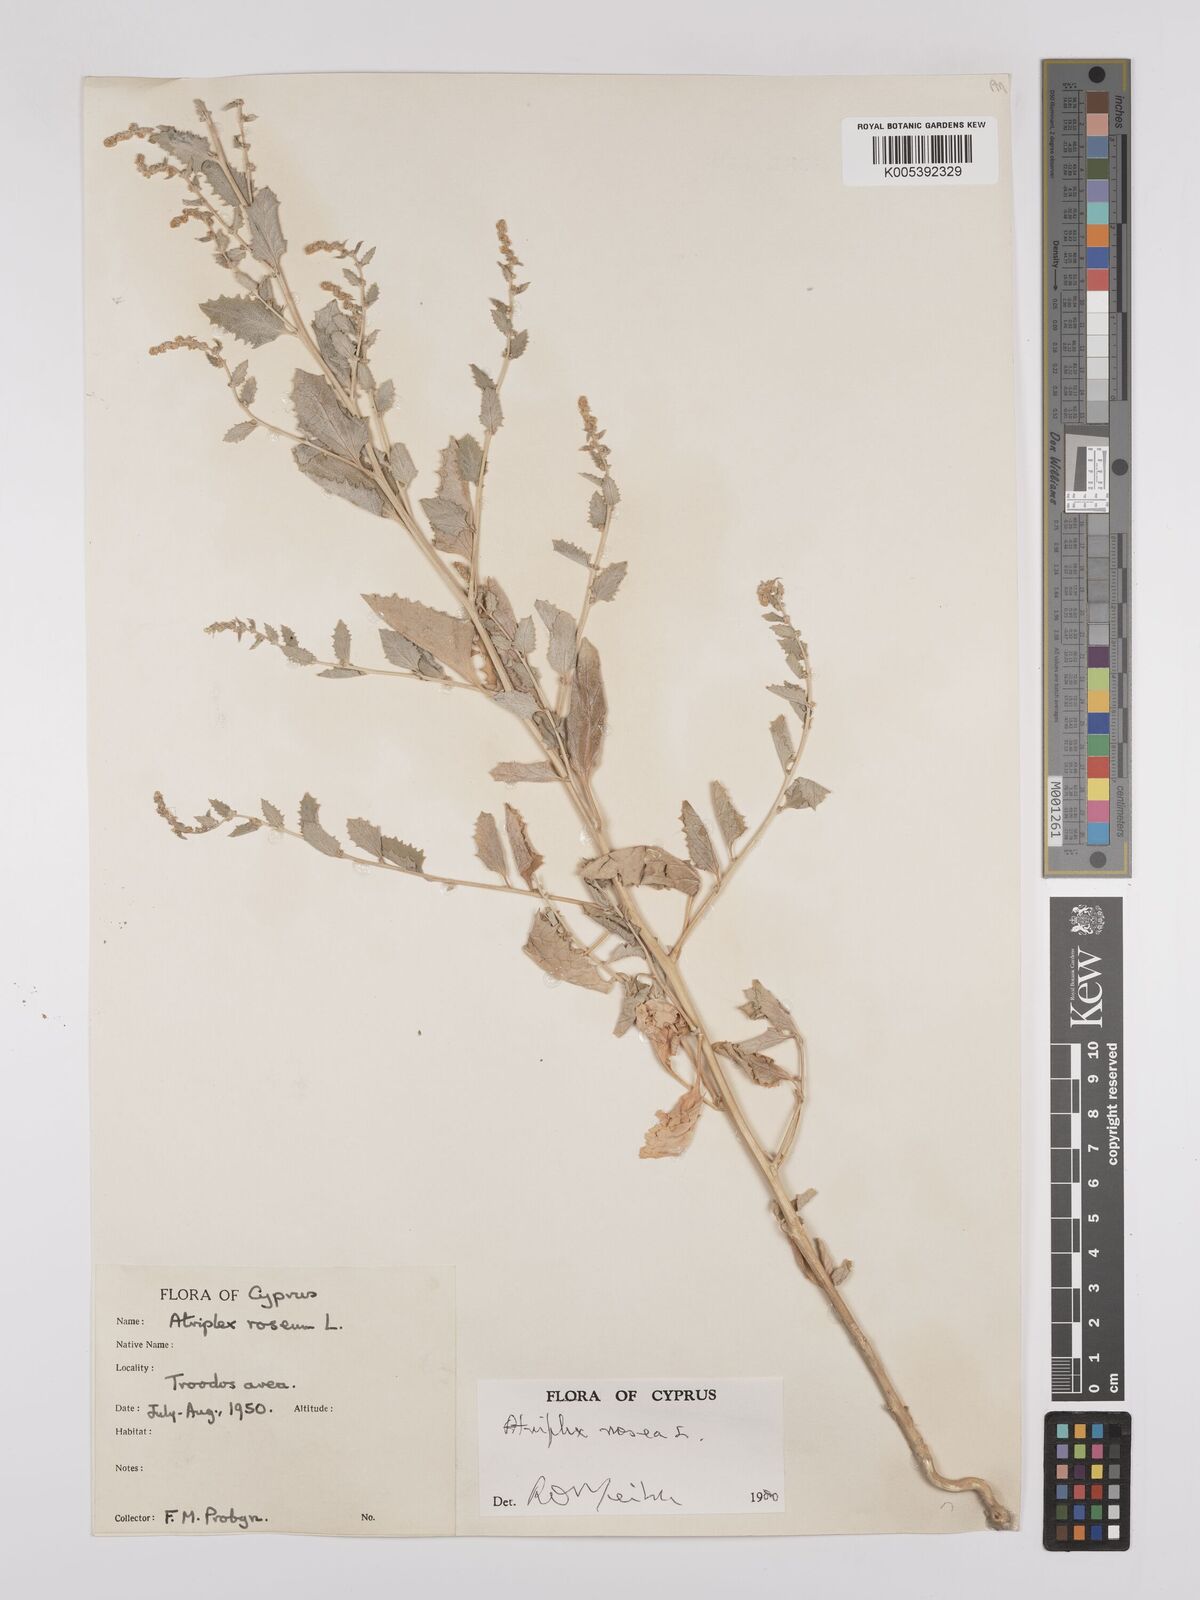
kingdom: Plantae
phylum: Tracheophyta
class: Magnoliopsida
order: Caryophyllales
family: Amaranthaceae
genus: Atriplex
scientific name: Atriplex
